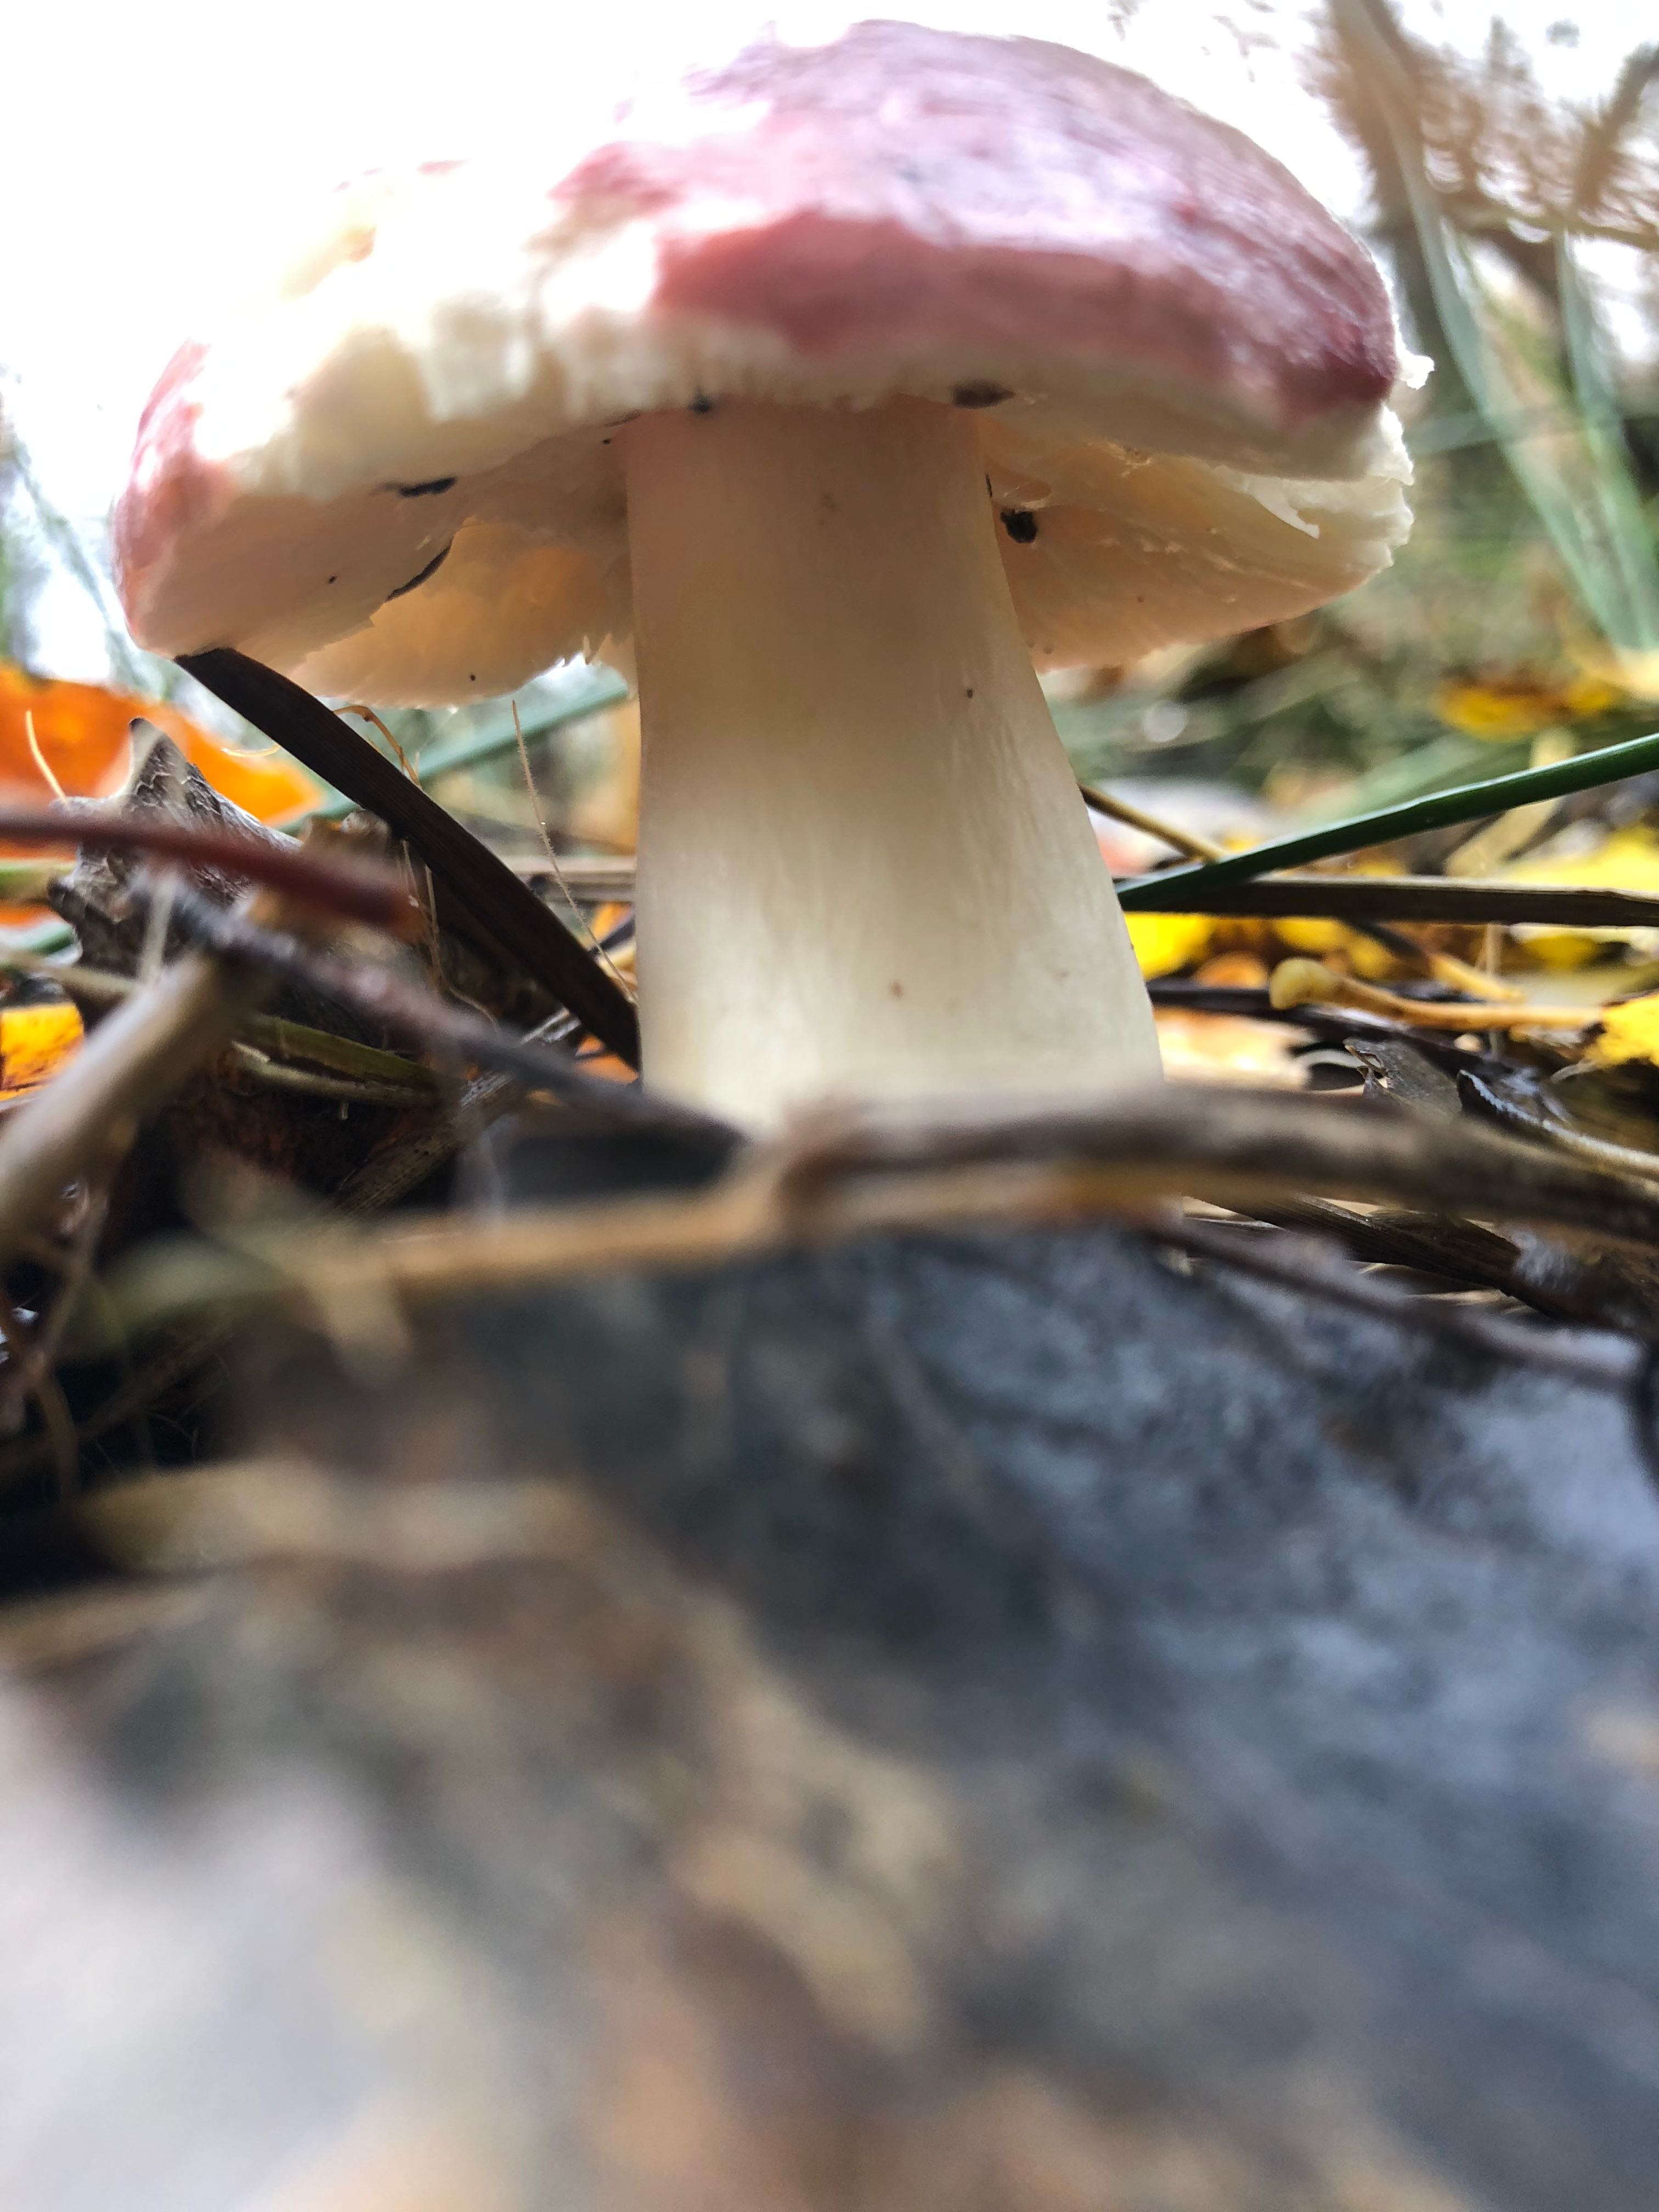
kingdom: Fungi
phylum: Basidiomycota
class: Agaricomycetes
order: Russulales
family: Russulaceae
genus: Russula
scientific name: Russula
